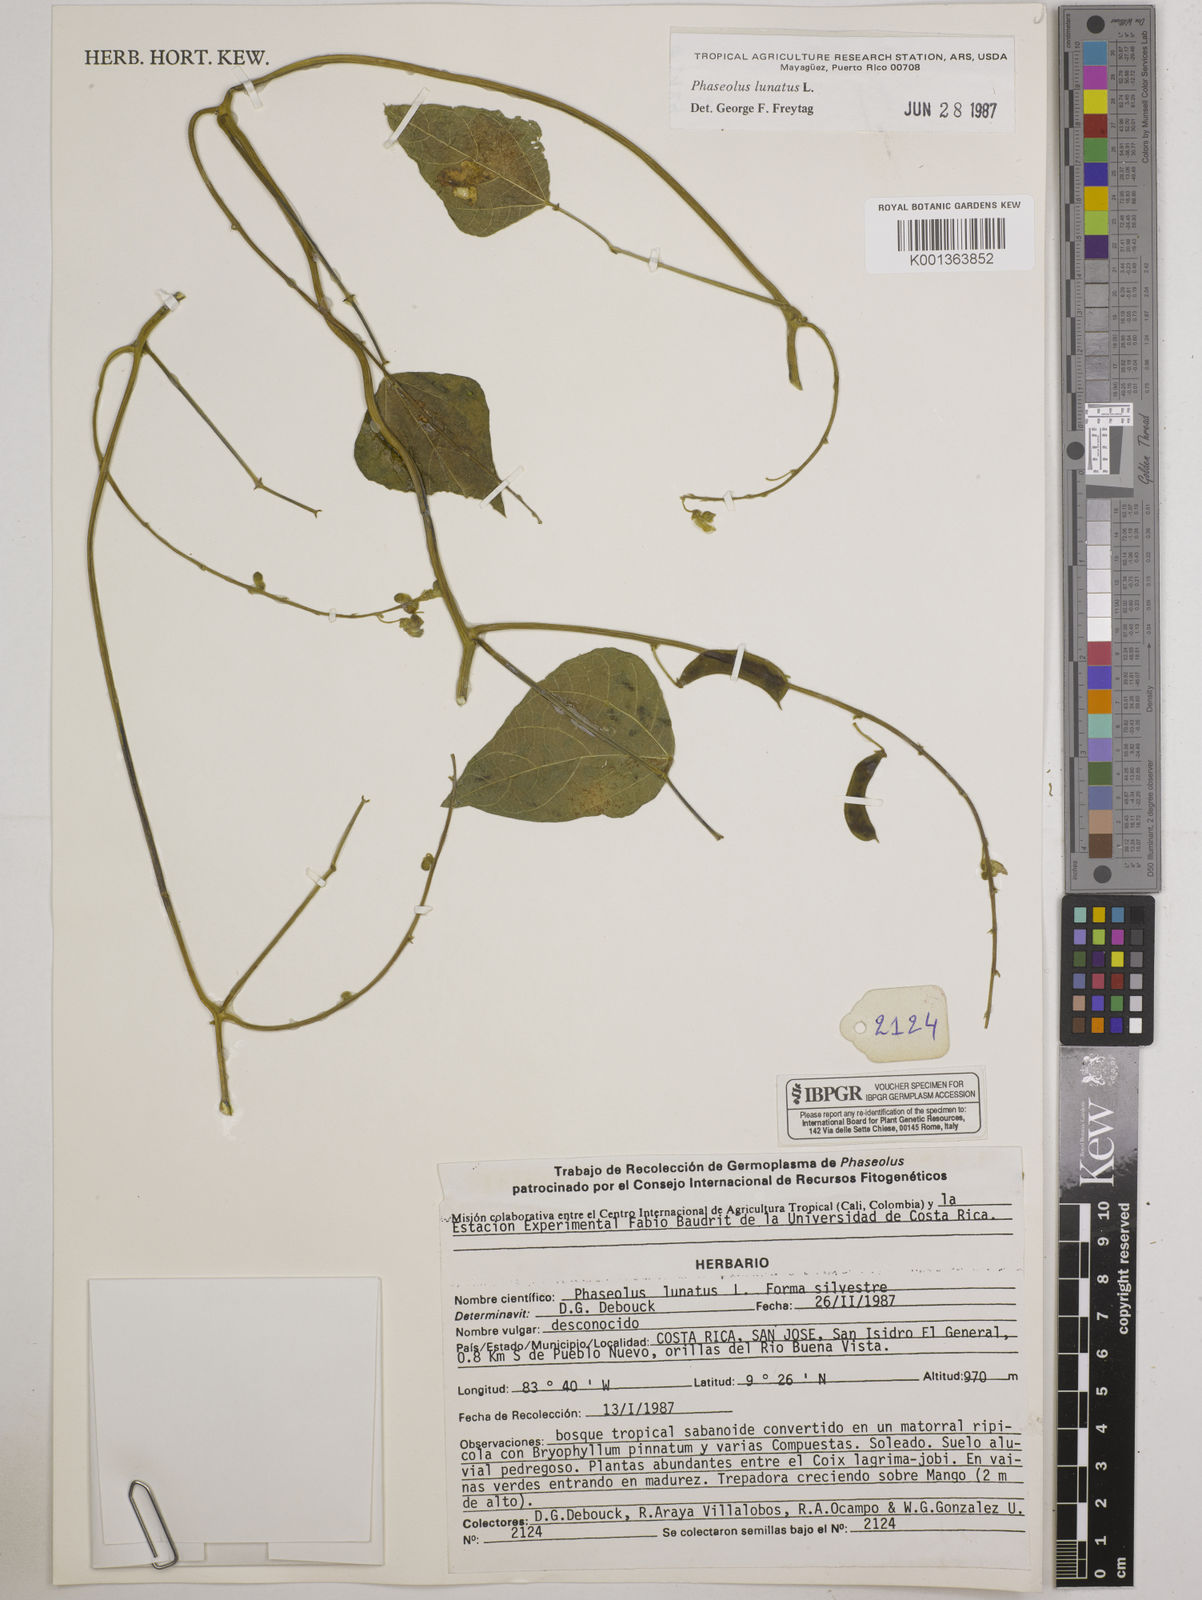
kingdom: Plantae
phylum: Tracheophyta
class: Magnoliopsida
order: Fabales
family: Fabaceae
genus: Phaseolus
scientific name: Phaseolus lunatus
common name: Sieva bean
